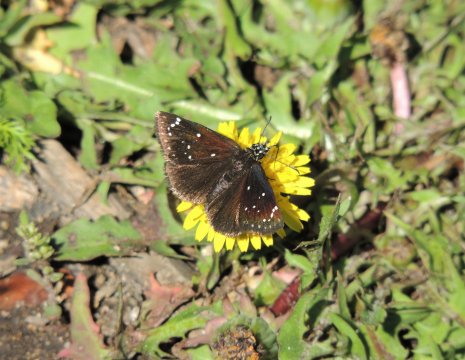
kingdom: Animalia
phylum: Arthropoda
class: Insecta
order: Lepidoptera
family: Hesperiidae
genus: Pholisora
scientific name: Pholisora catullus
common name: Common Sootywing
